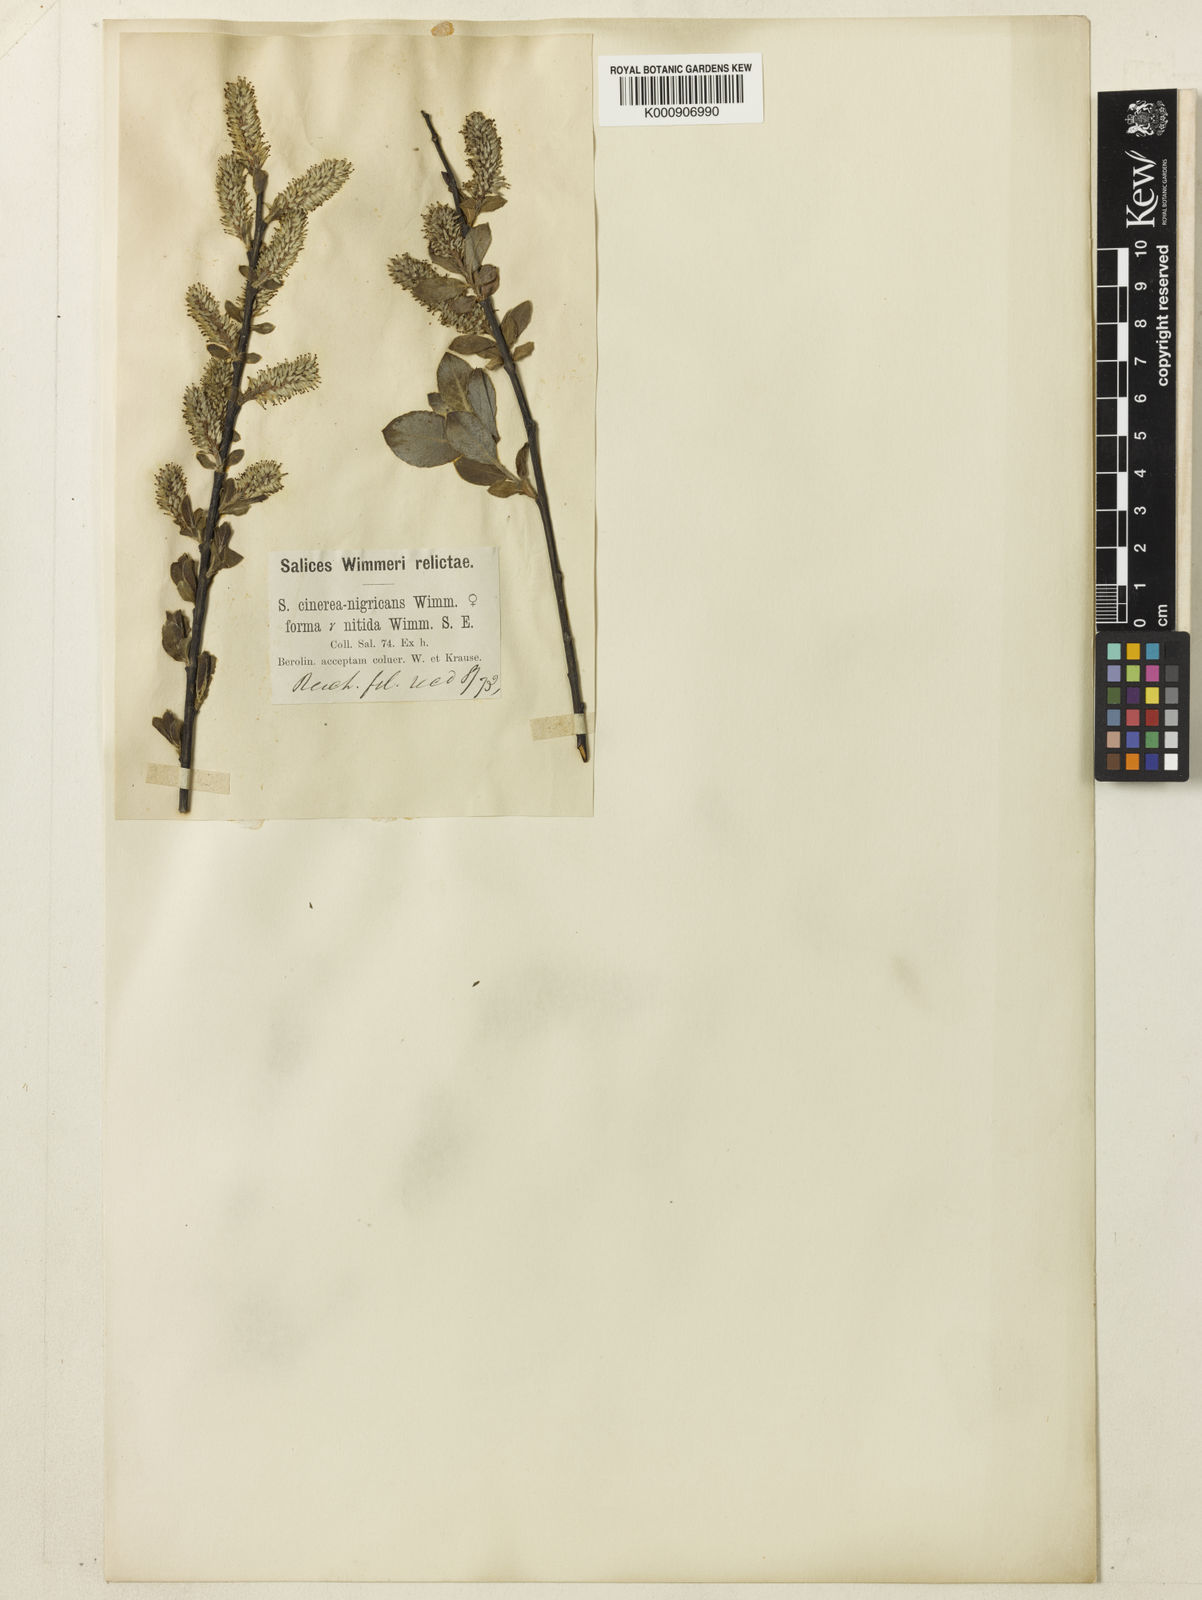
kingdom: Plantae
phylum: Tracheophyta
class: Magnoliopsida
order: Malpighiales
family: Salicaceae
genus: Salix
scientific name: Salix
